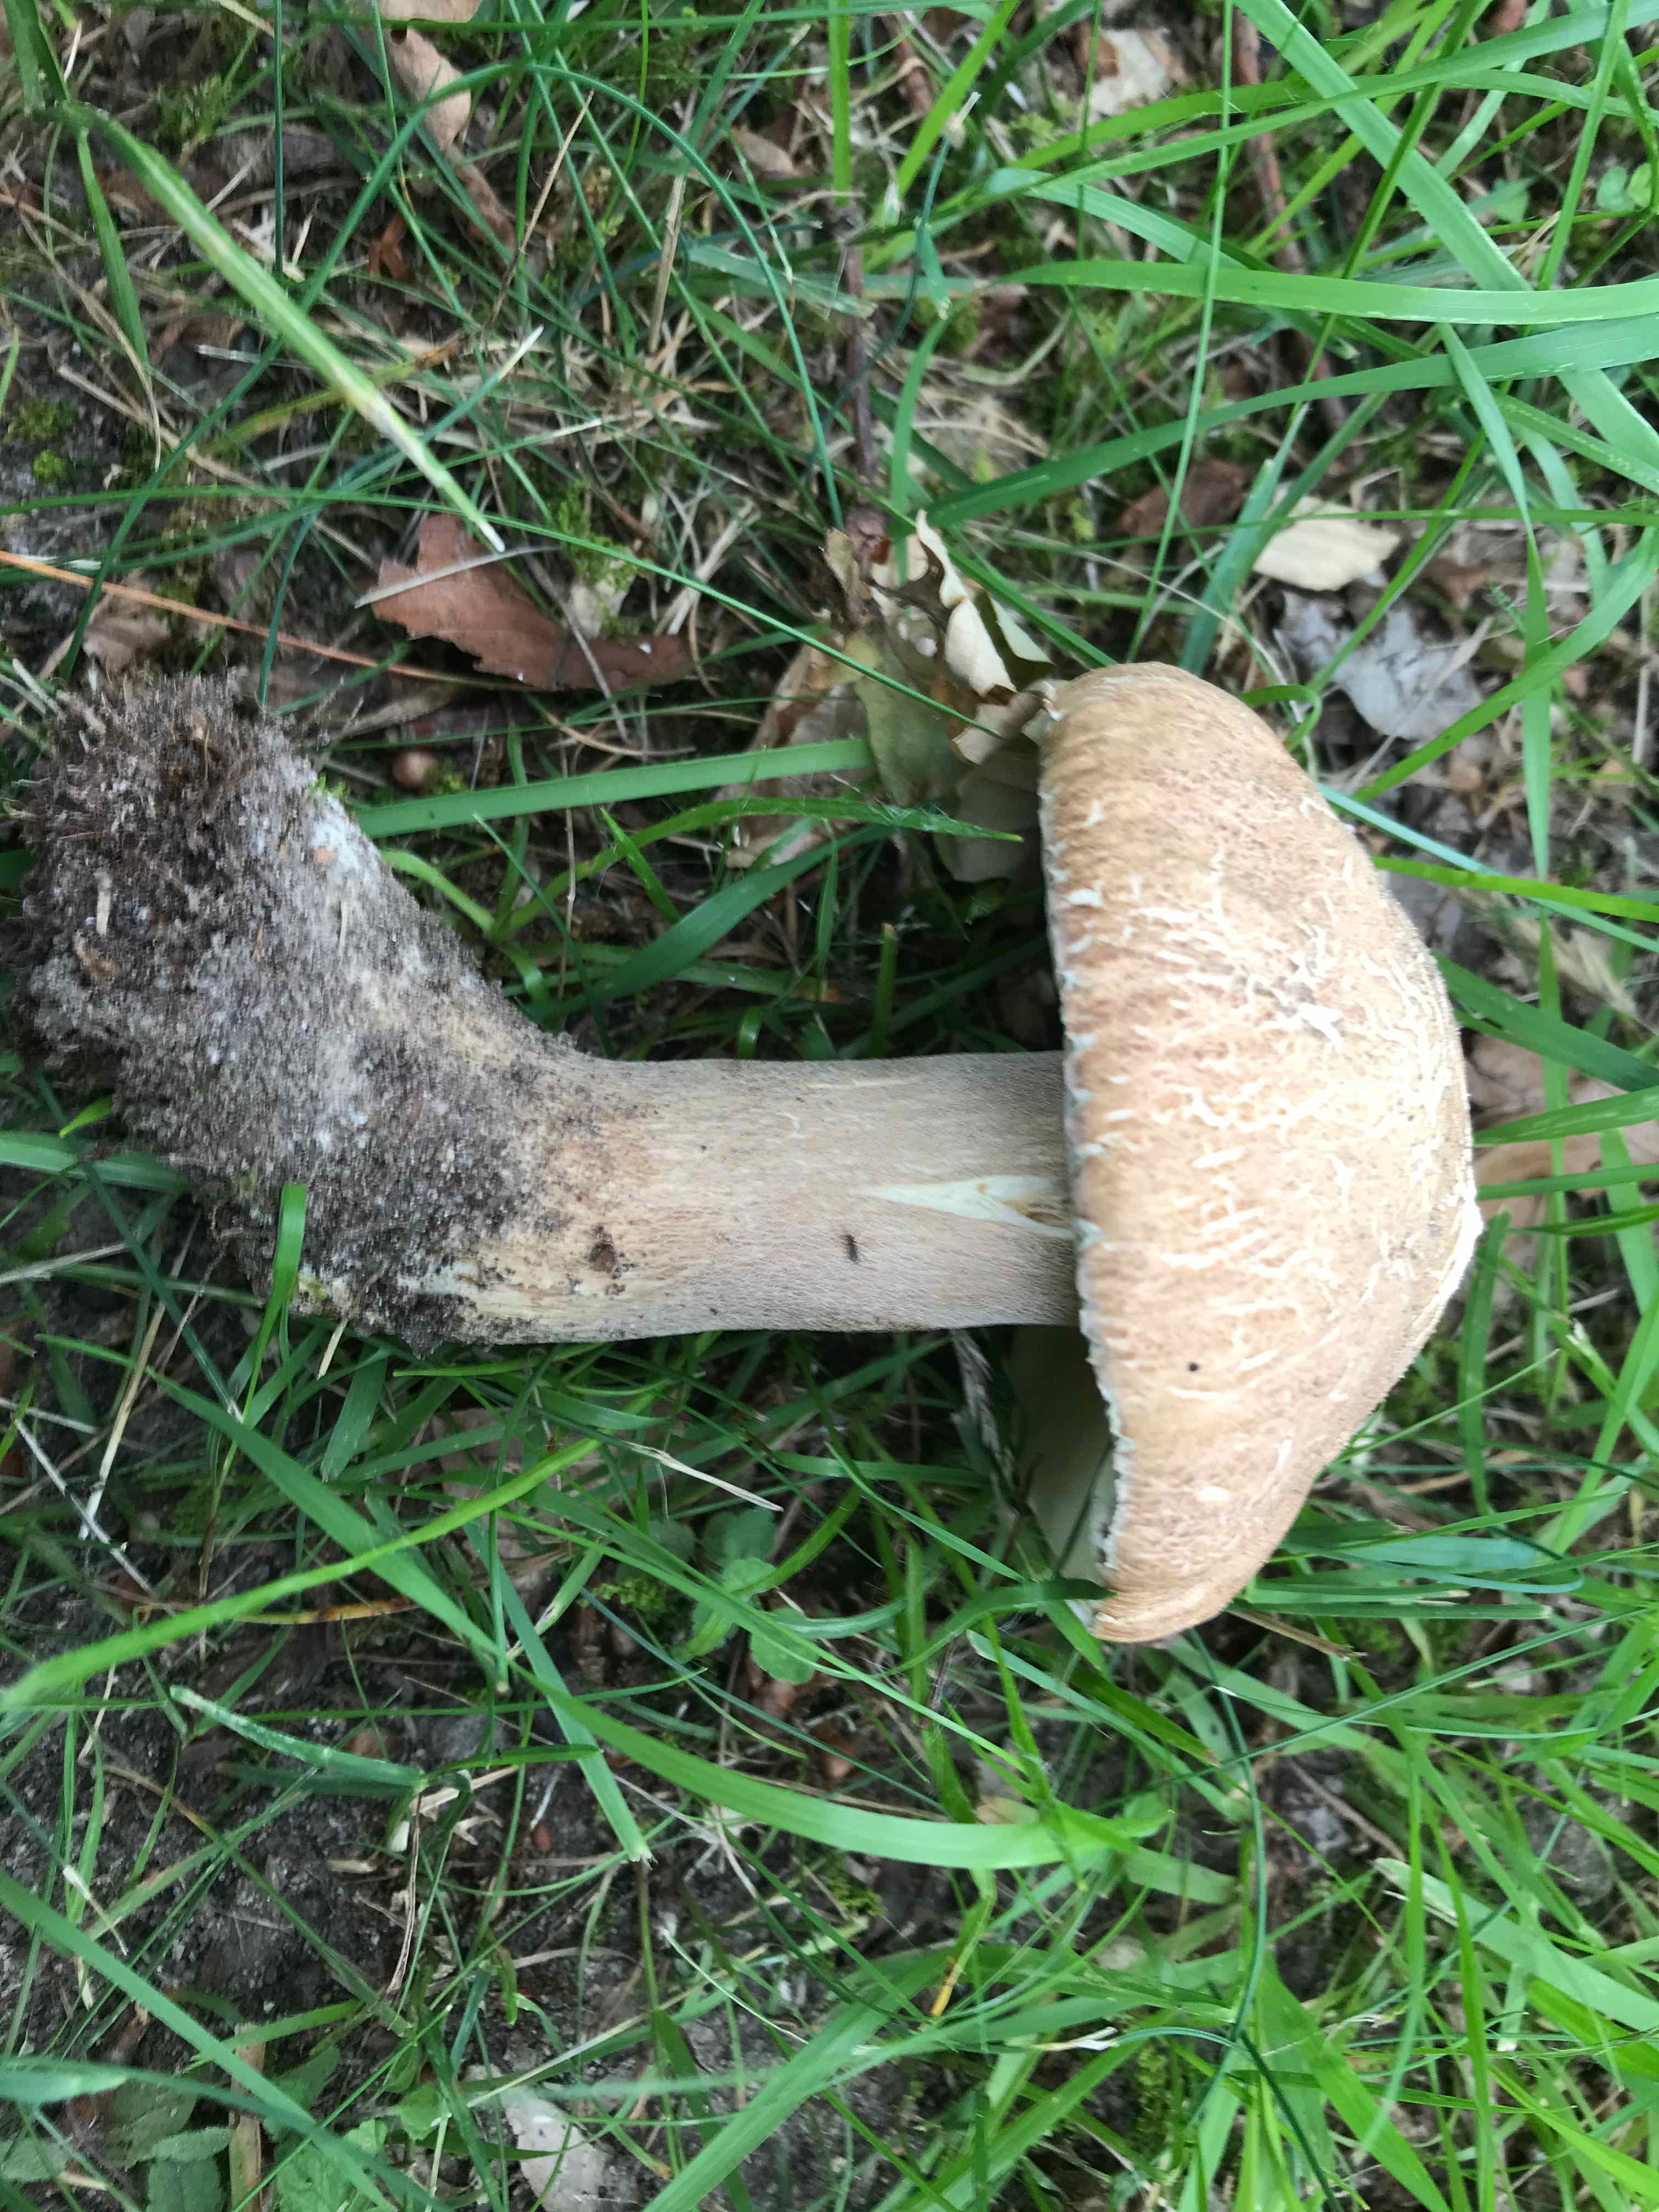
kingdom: Fungi
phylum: Basidiomycota
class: Agaricomycetes
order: Boletales
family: Boletaceae
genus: Boletus
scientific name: Boletus reticulatus
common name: sommer-rørhat
